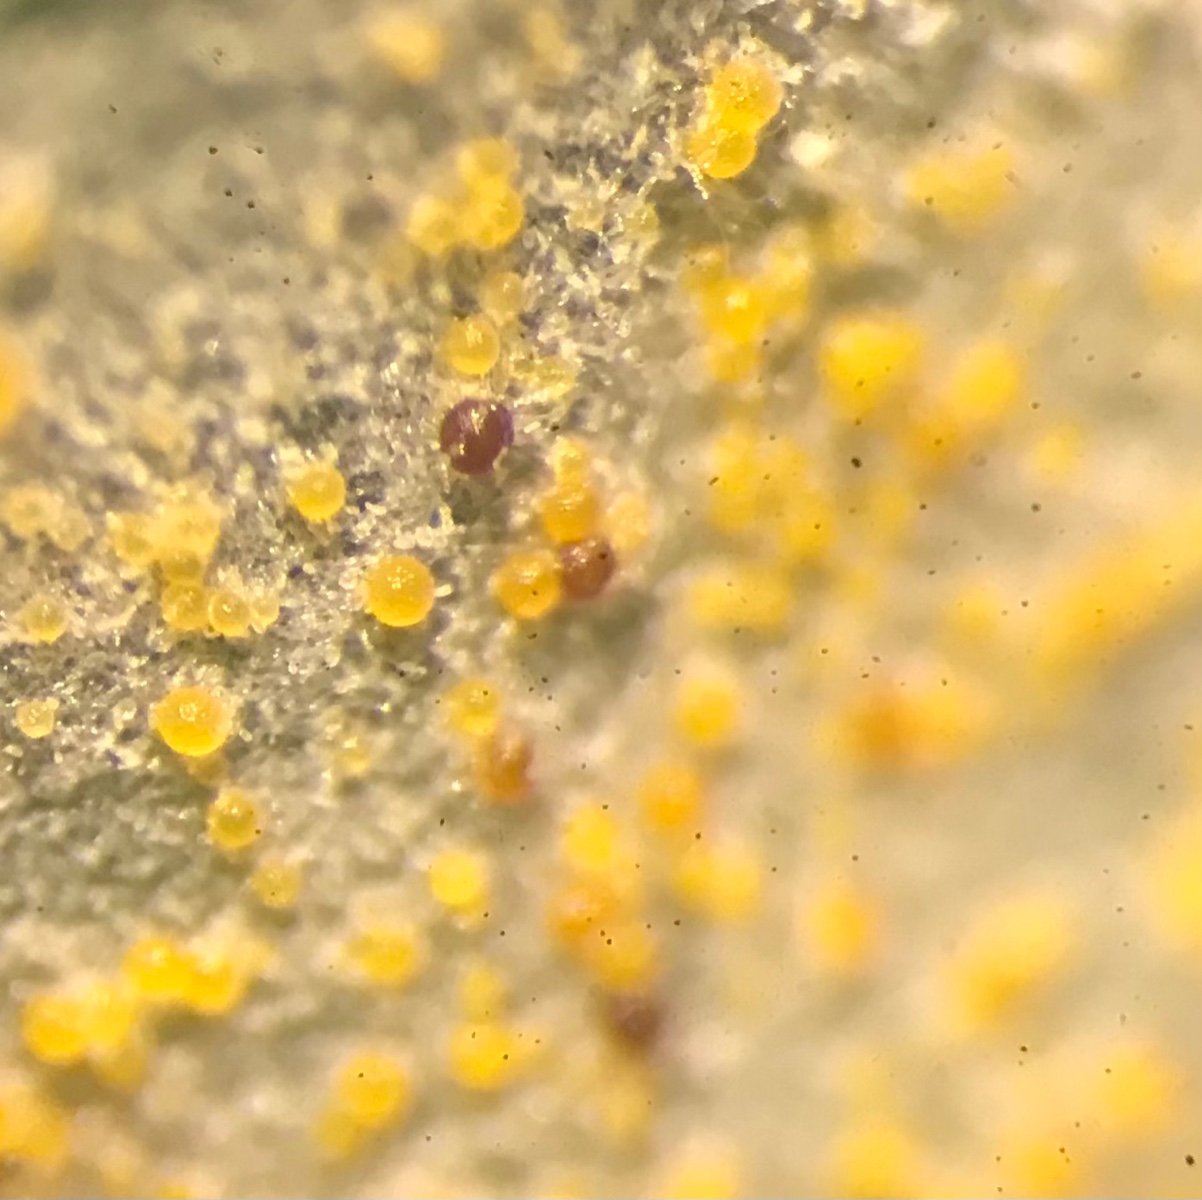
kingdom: Fungi
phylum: Ascomycota
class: Leotiomycetes
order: Helotiales
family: Erysiphaceae
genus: Erysiphe
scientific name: Erysiphe intermedia
